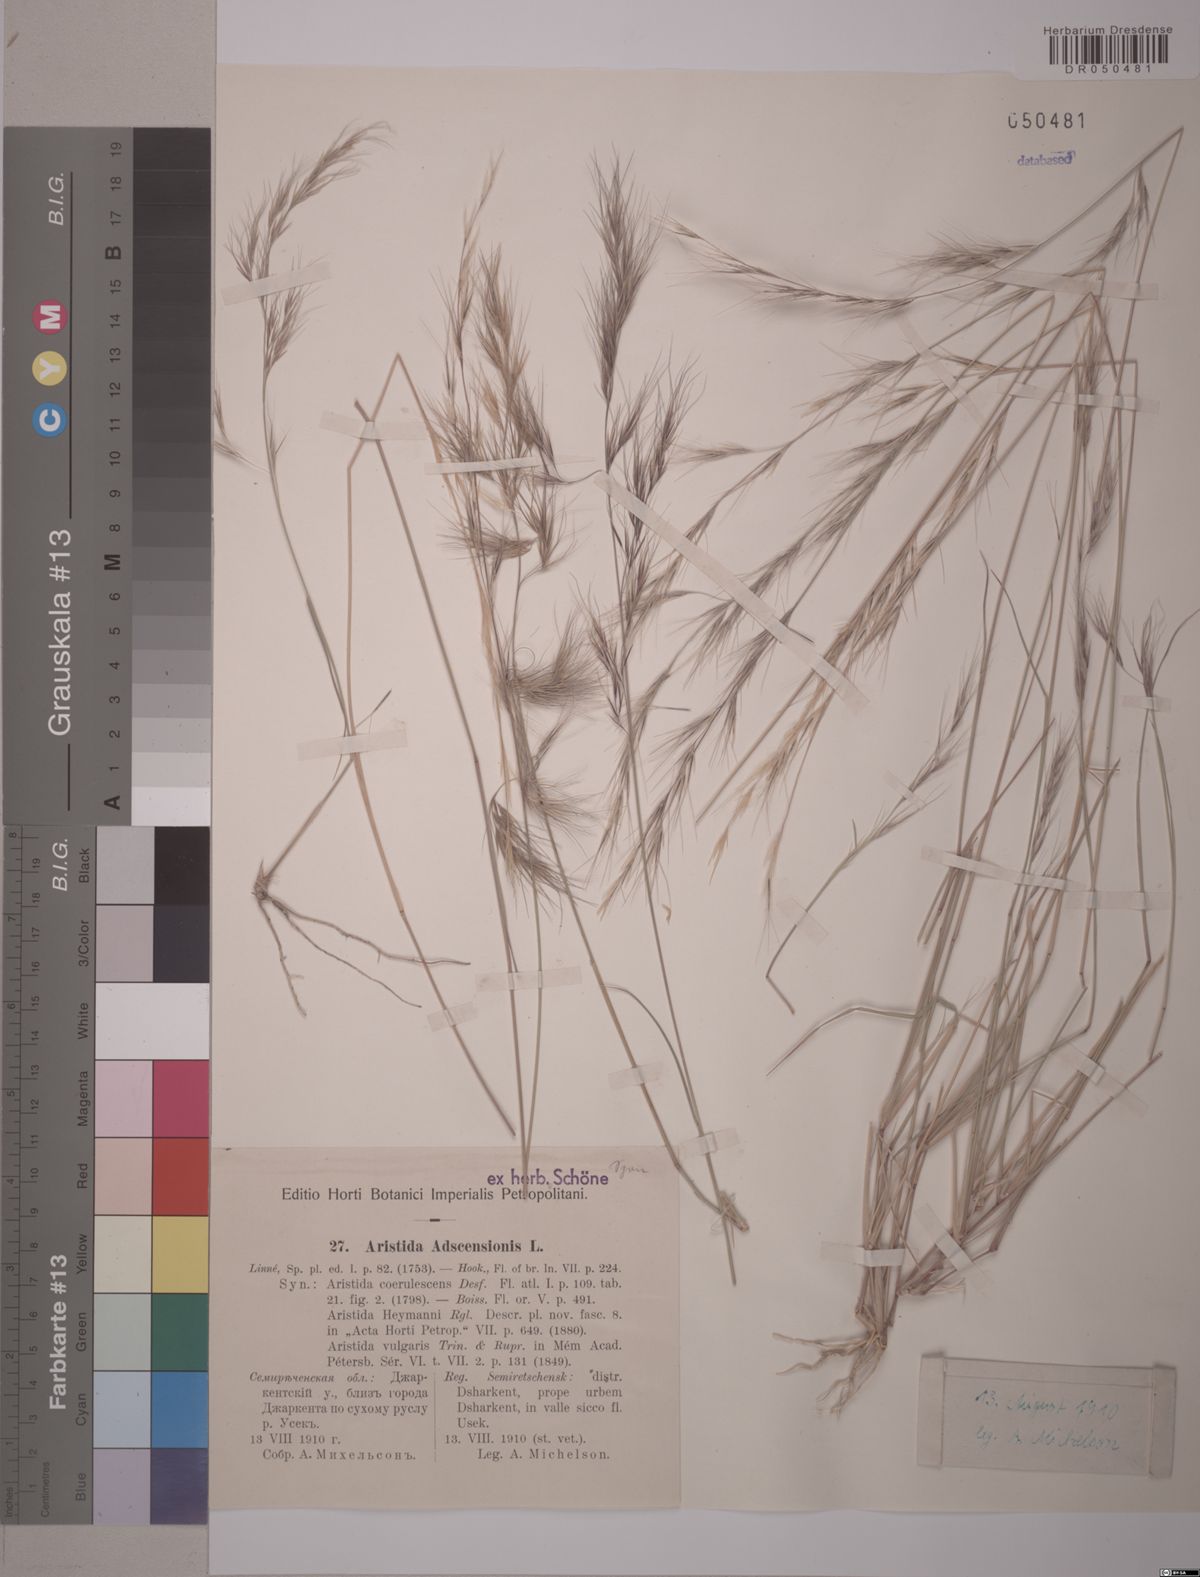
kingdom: Plantae
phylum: Tracheophyta
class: Liliopsida
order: Poales
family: Poaceae
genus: Aristida
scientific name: Aristida adscensionis
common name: Sixweeks threeawn
